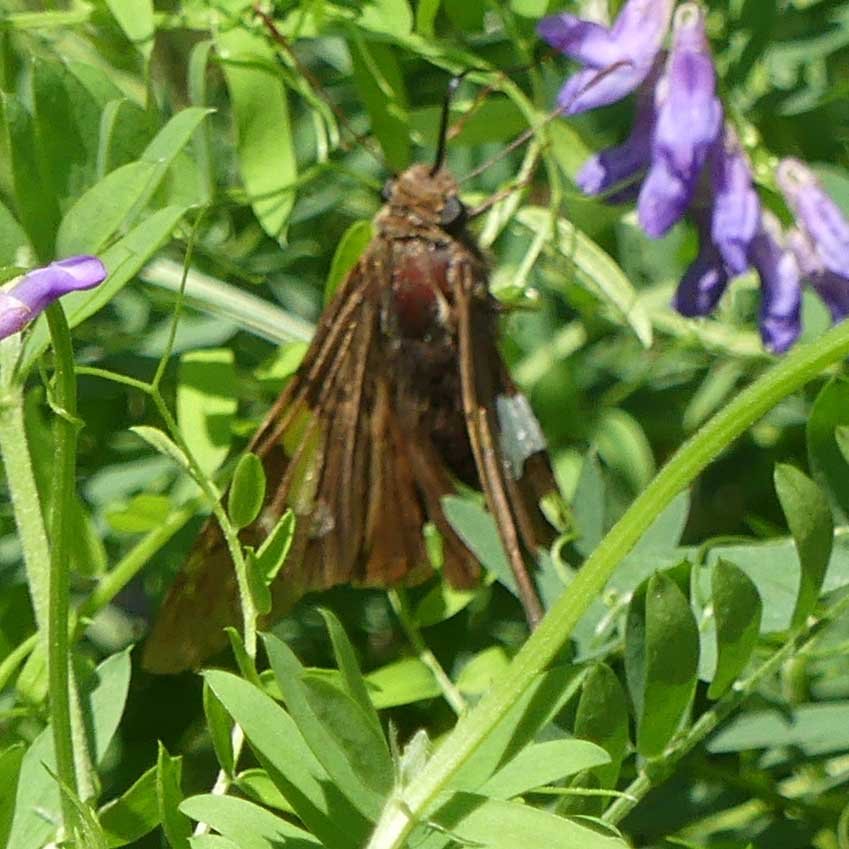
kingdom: Animalia
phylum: Arthropoda
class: Insecta
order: Lepidoptera
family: Hesperiidae
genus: Epargyreus
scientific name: Epargyreus clarus
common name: Silver-spotted Skipper
